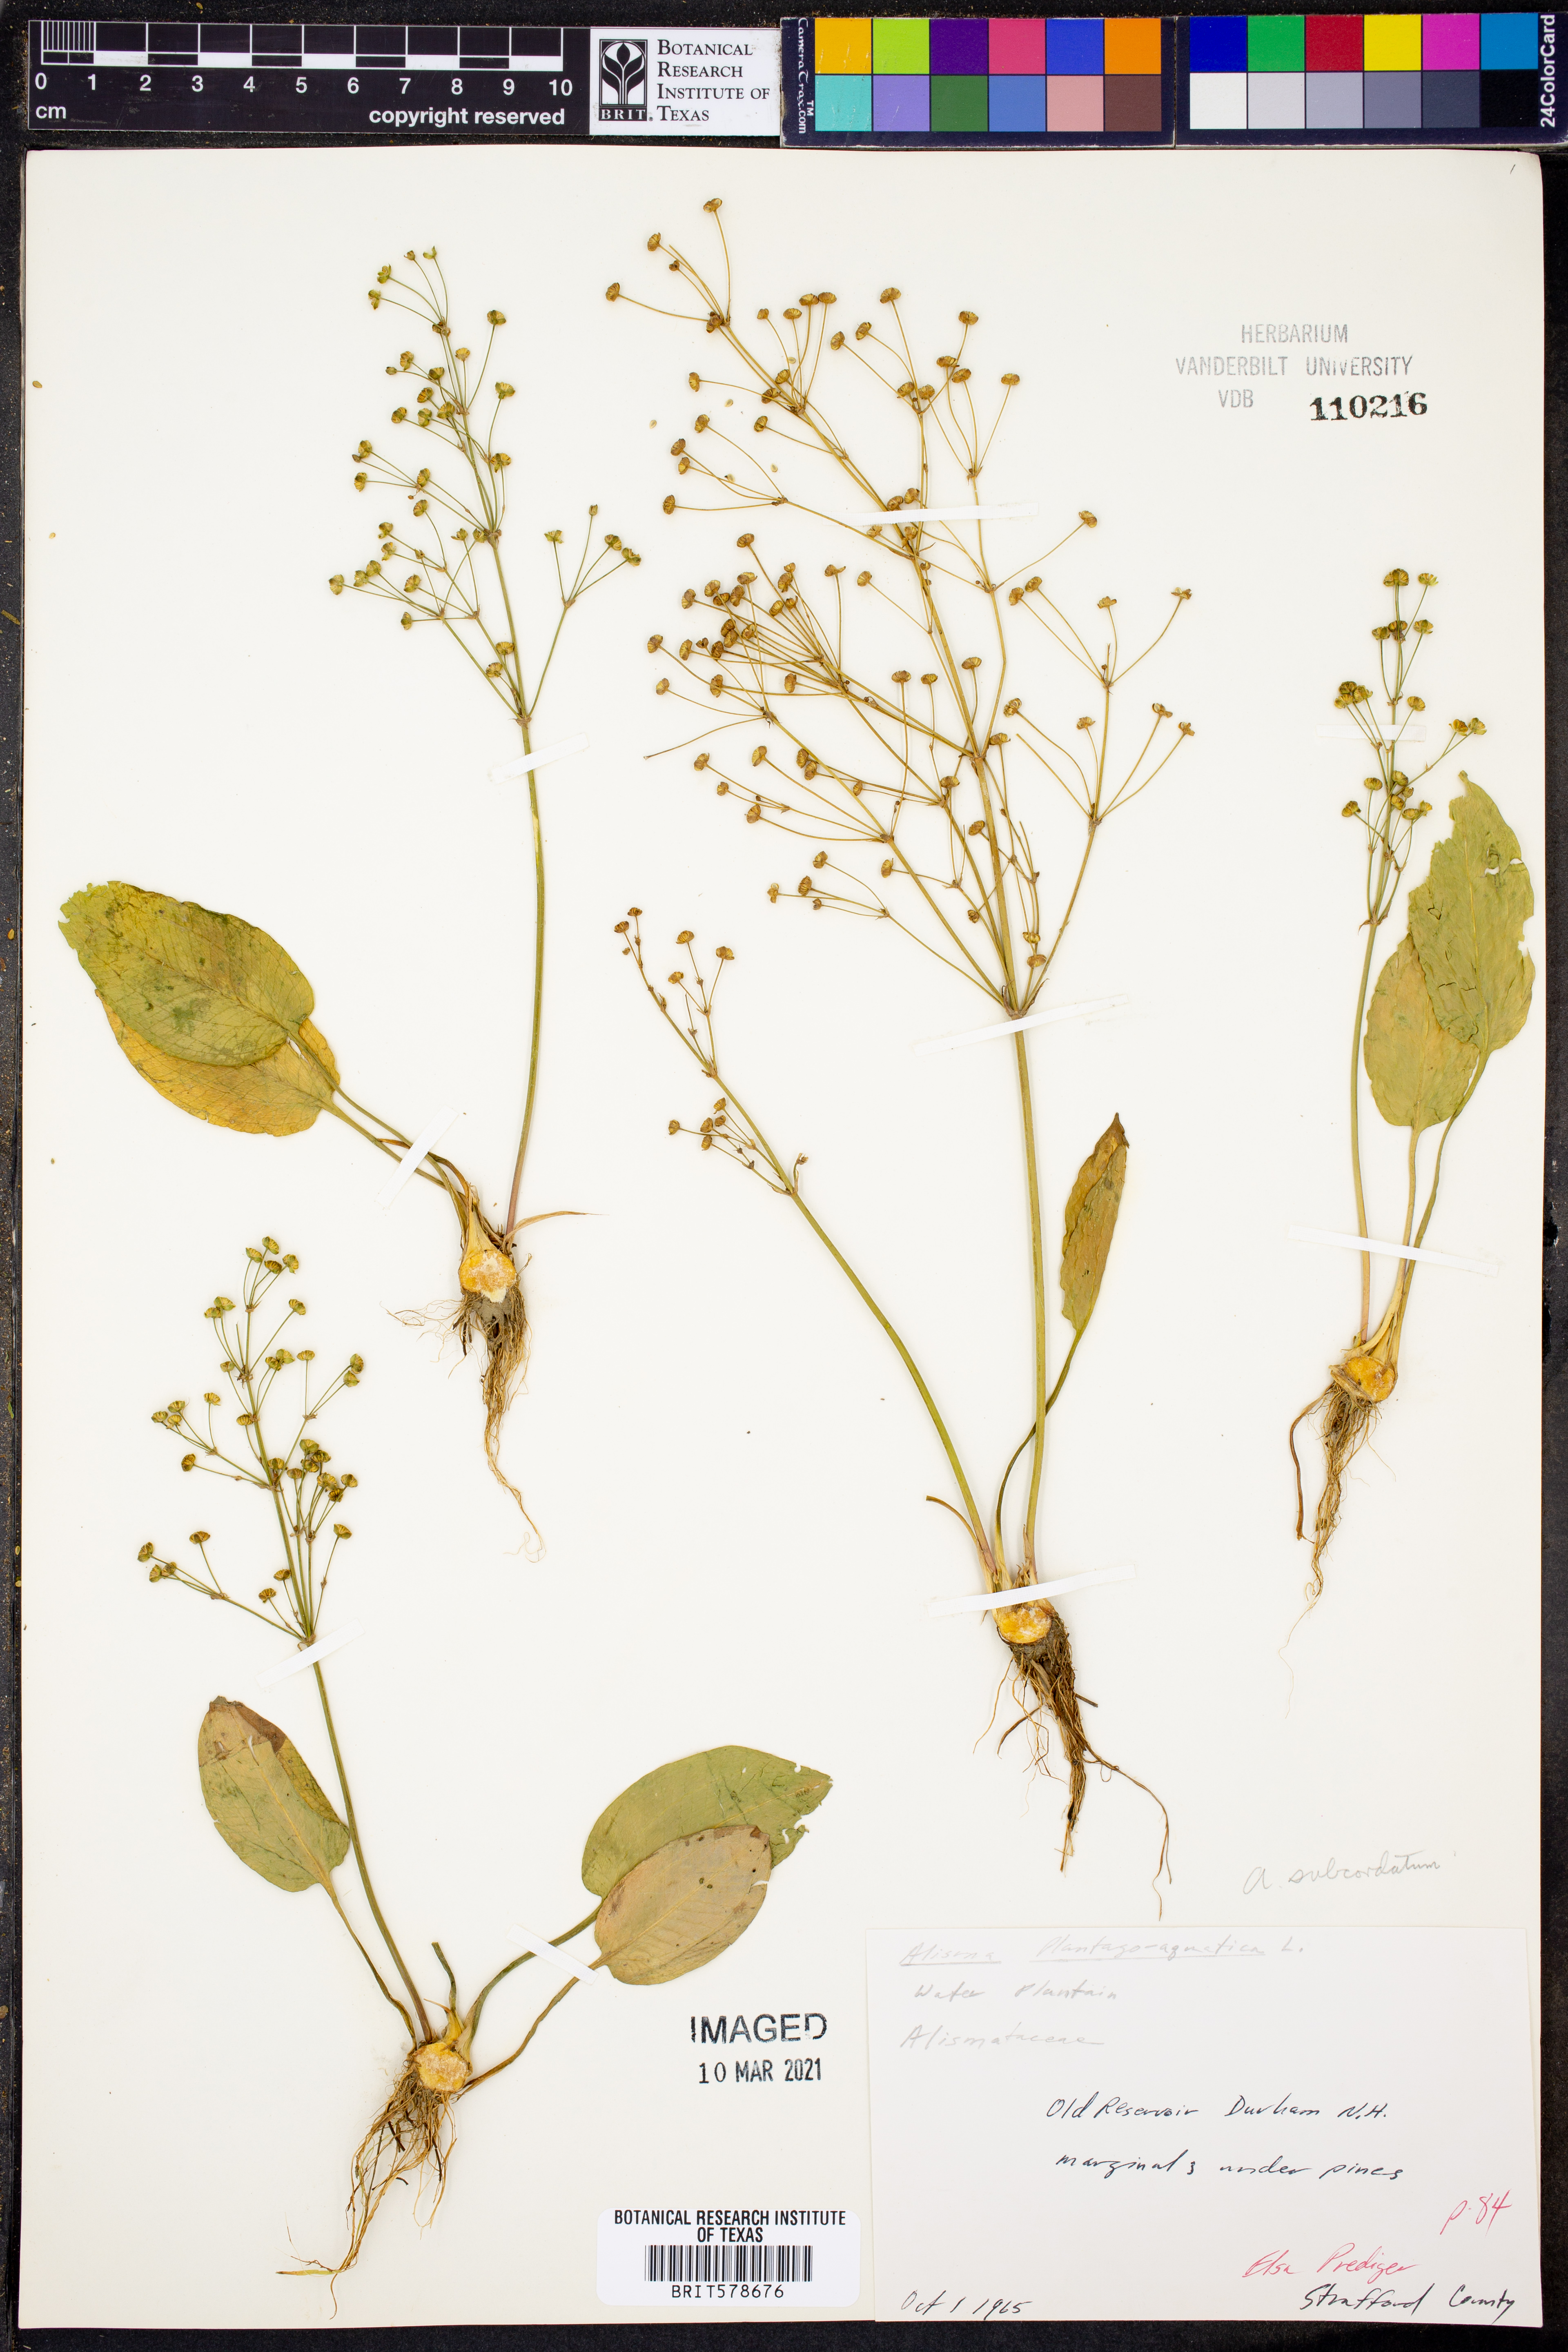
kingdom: Plantae
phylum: Tracheophyta
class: Liliopsida
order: Alismatales
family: Alismataceae
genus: Alisma
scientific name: Alisma subcordatum
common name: Southern water-plantain
